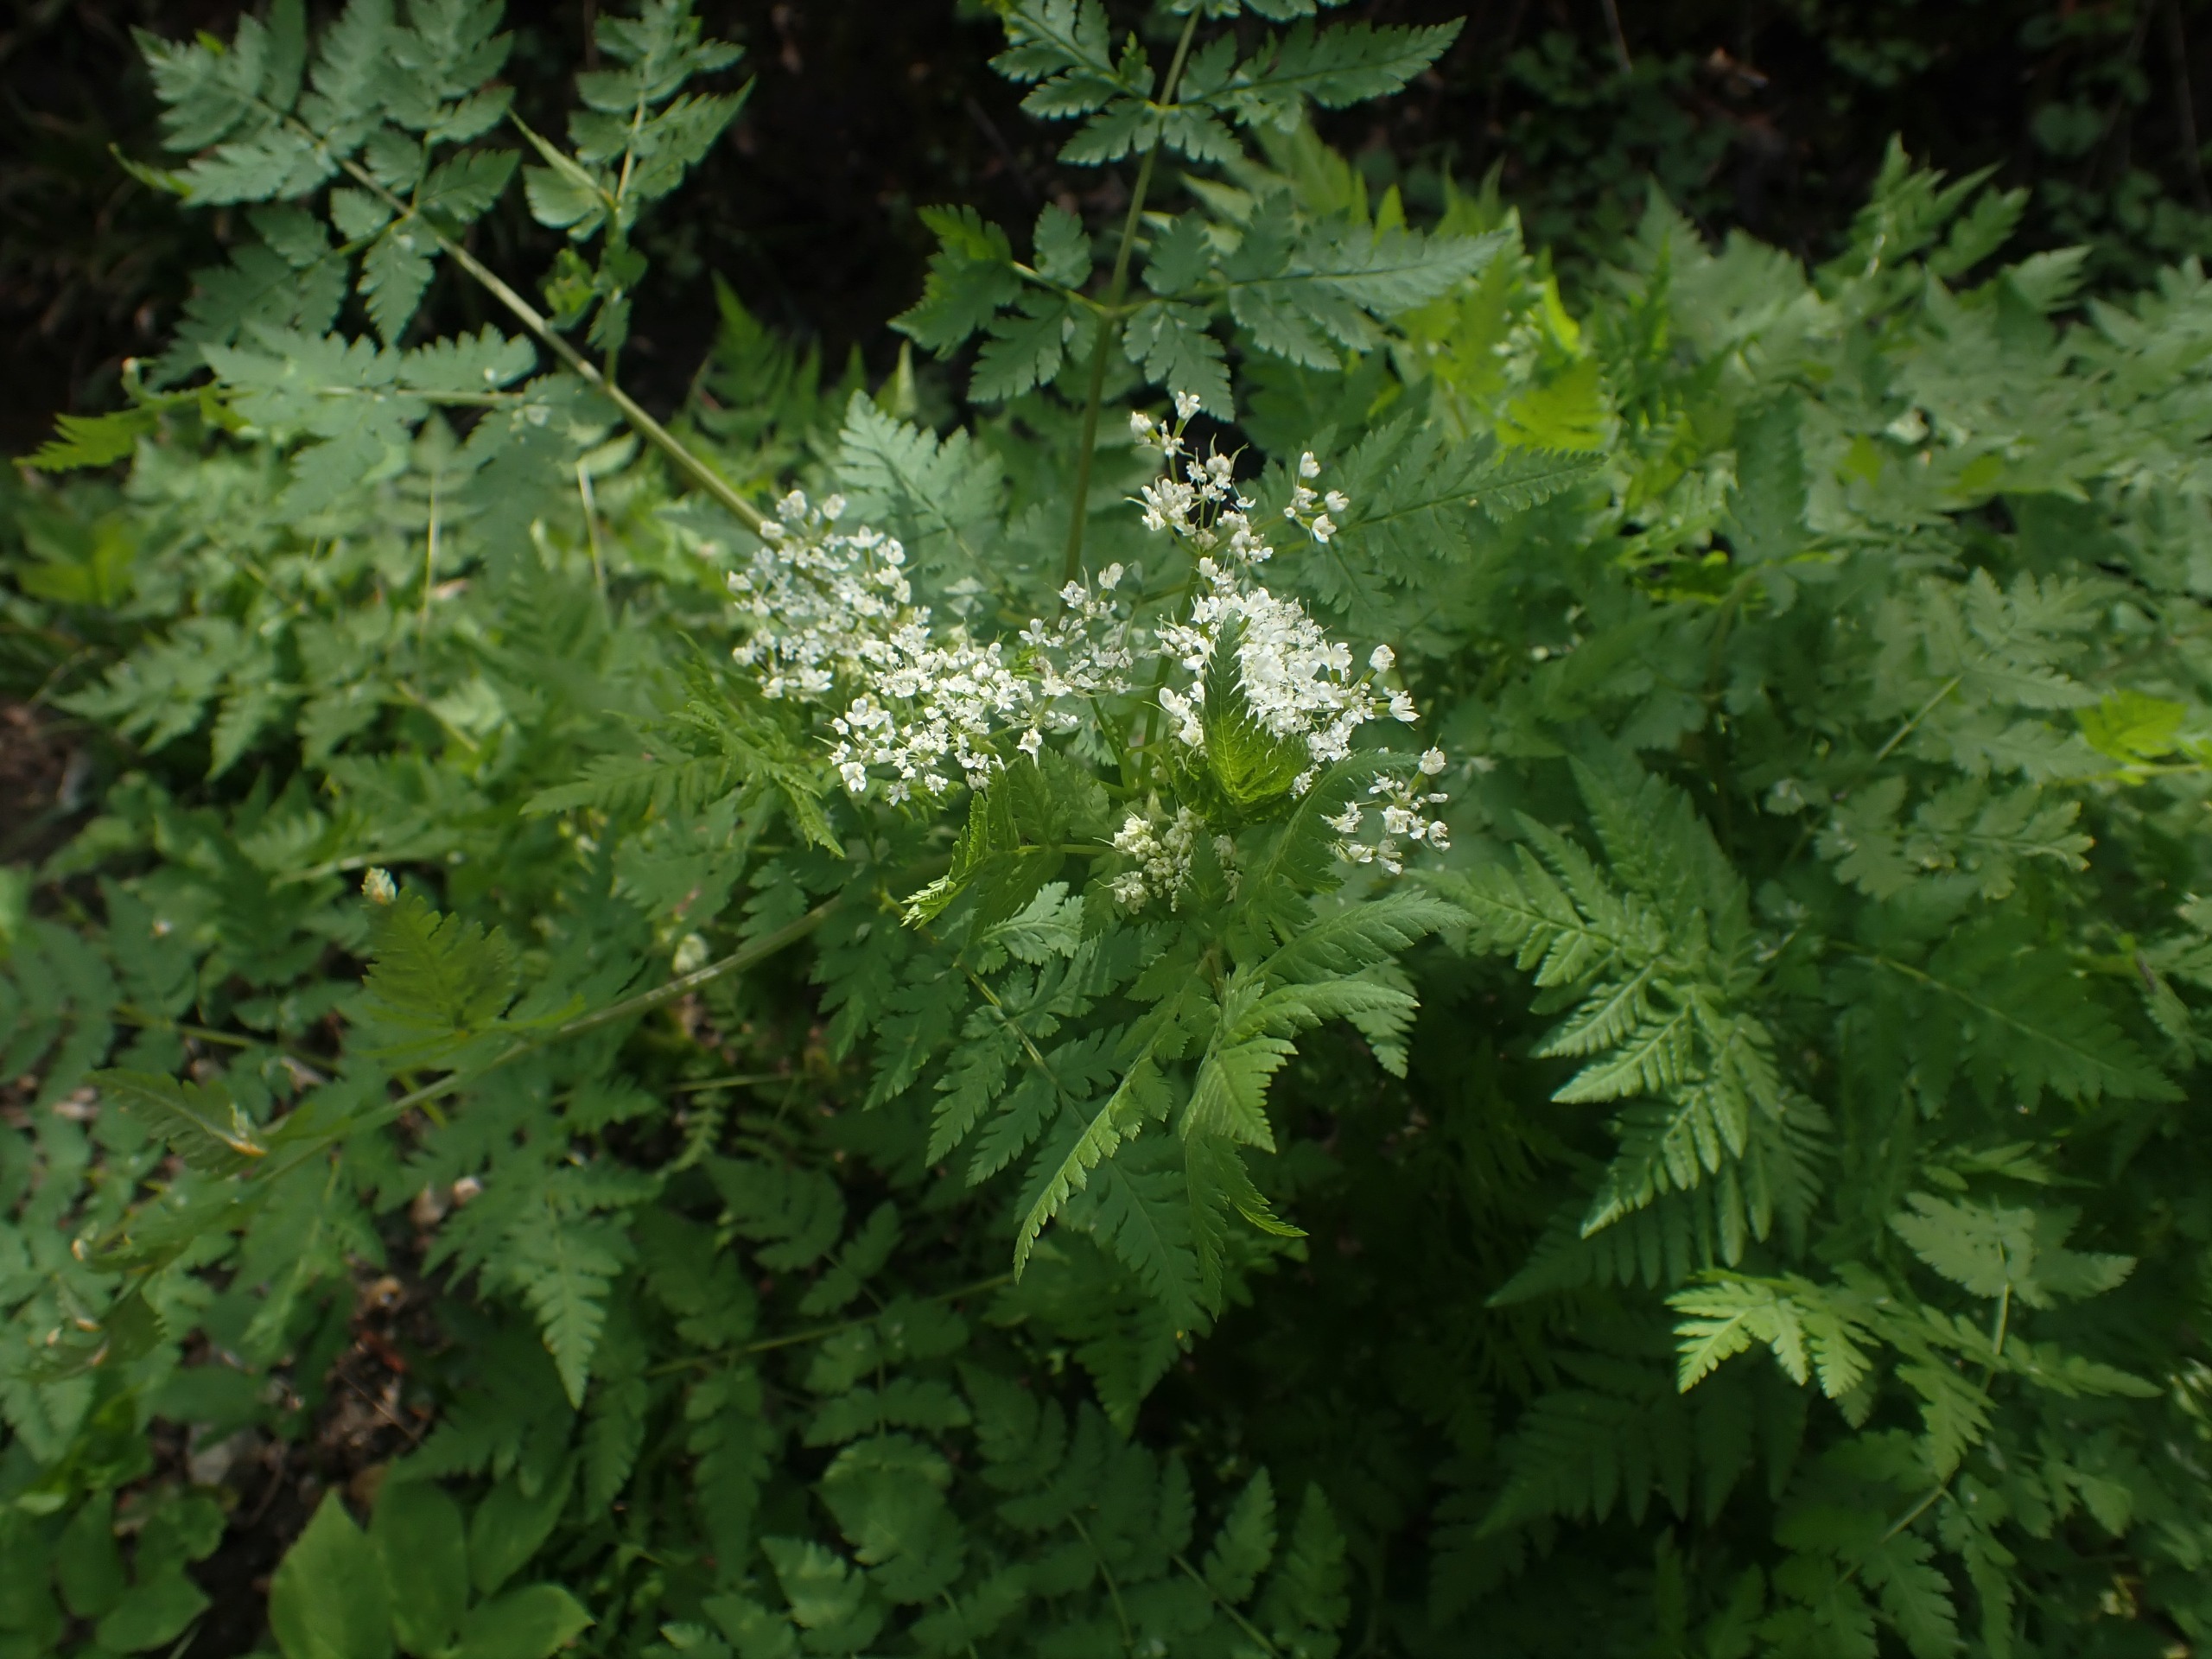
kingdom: Plantae
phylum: Tracheophyta
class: Magnoliopsida
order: Apiales
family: Apiaceae
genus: Myrrhis
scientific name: Myrrhis odorata
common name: Sødskærm
